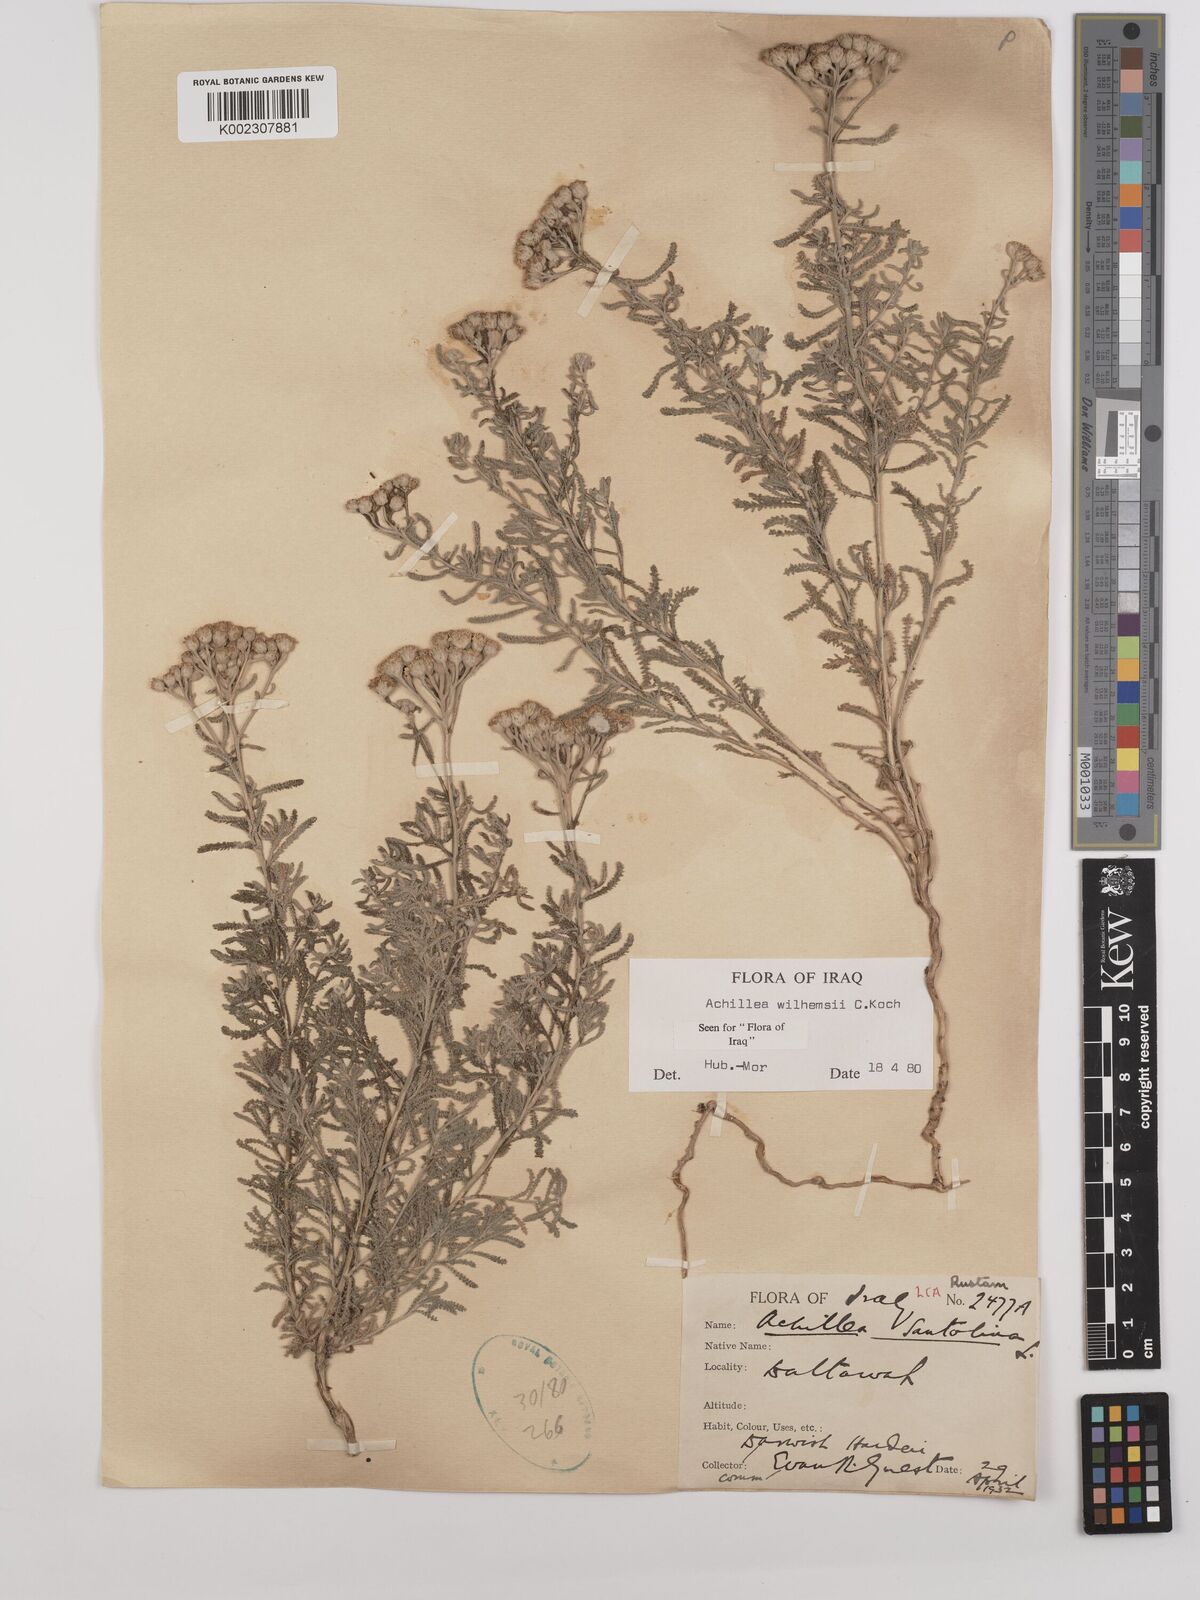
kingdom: Plantae
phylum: Tracheophyta
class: Magnoliopsida
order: Asterales
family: Asteraceae
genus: Achillea
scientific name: Achillea wilhelmsii
